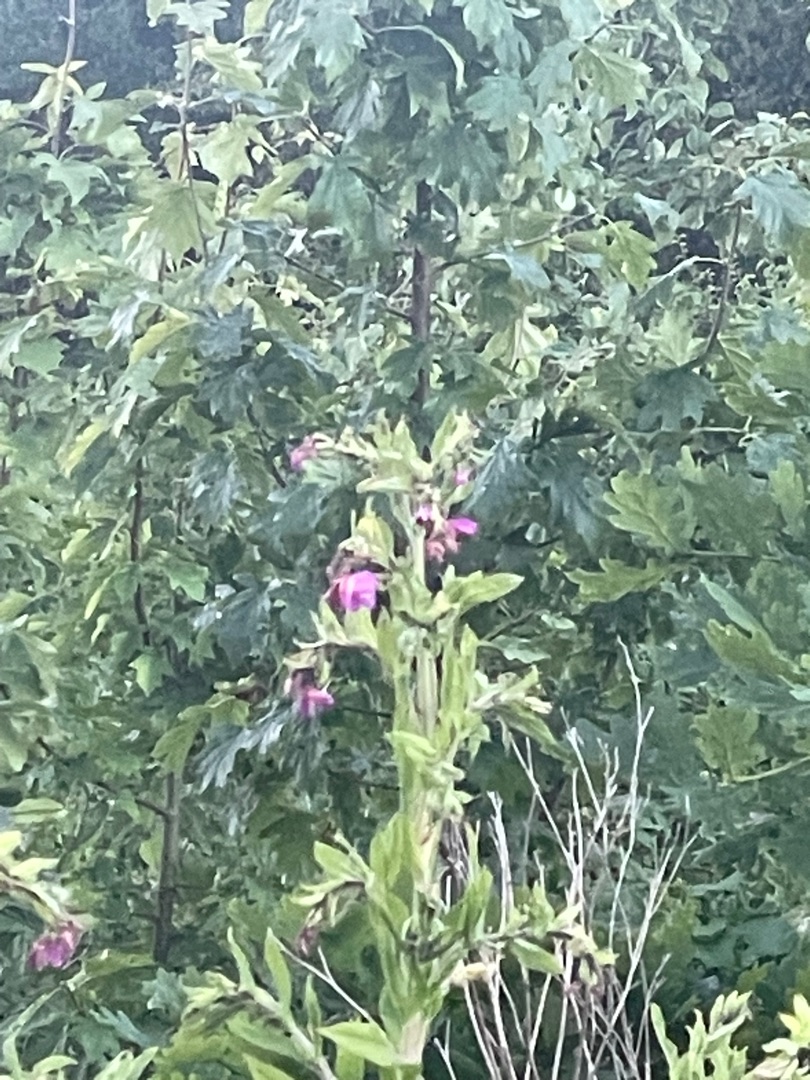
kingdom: Plantae
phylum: Tracheophyta
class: Magnoliopsida
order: Myrtales
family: Onagraceae
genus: Epilobium
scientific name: Epilobium hirsutum
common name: Lådden dueurt
